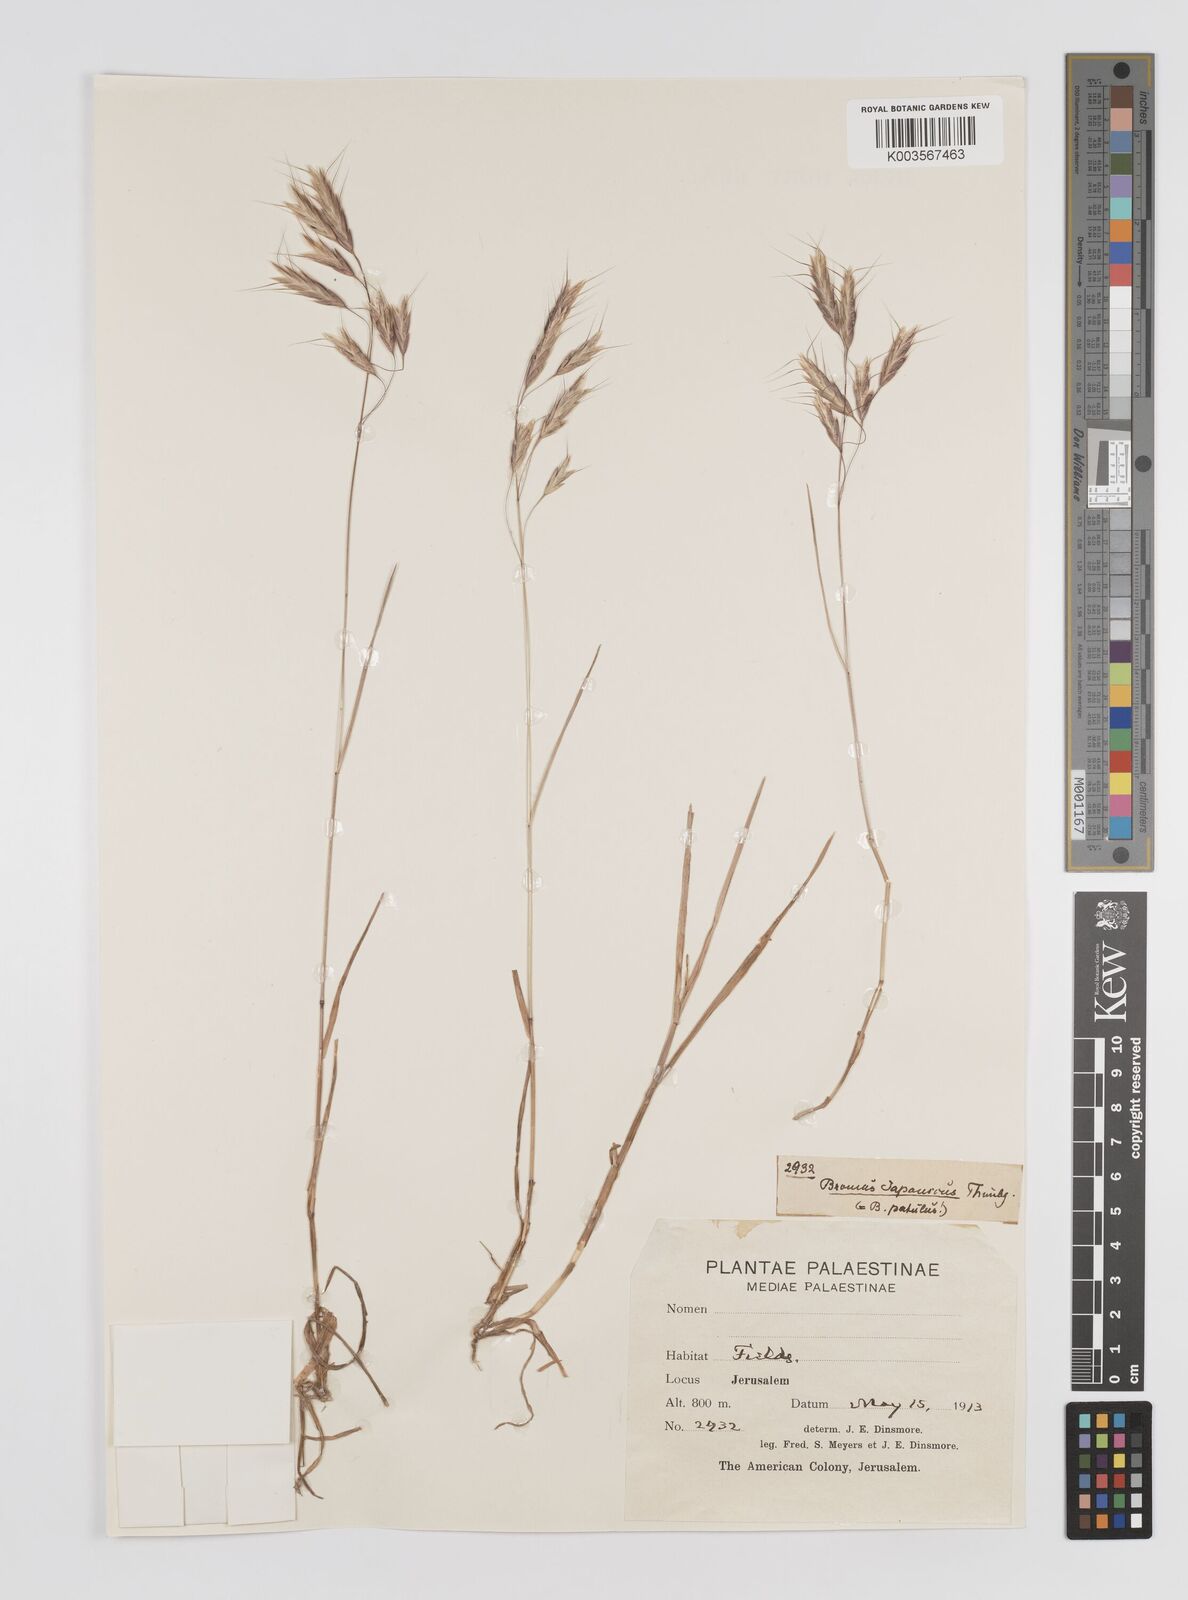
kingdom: Plantae
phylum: Tracheophyta
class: Liliopsida
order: Poales
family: Poaceae
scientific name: Poaceae
